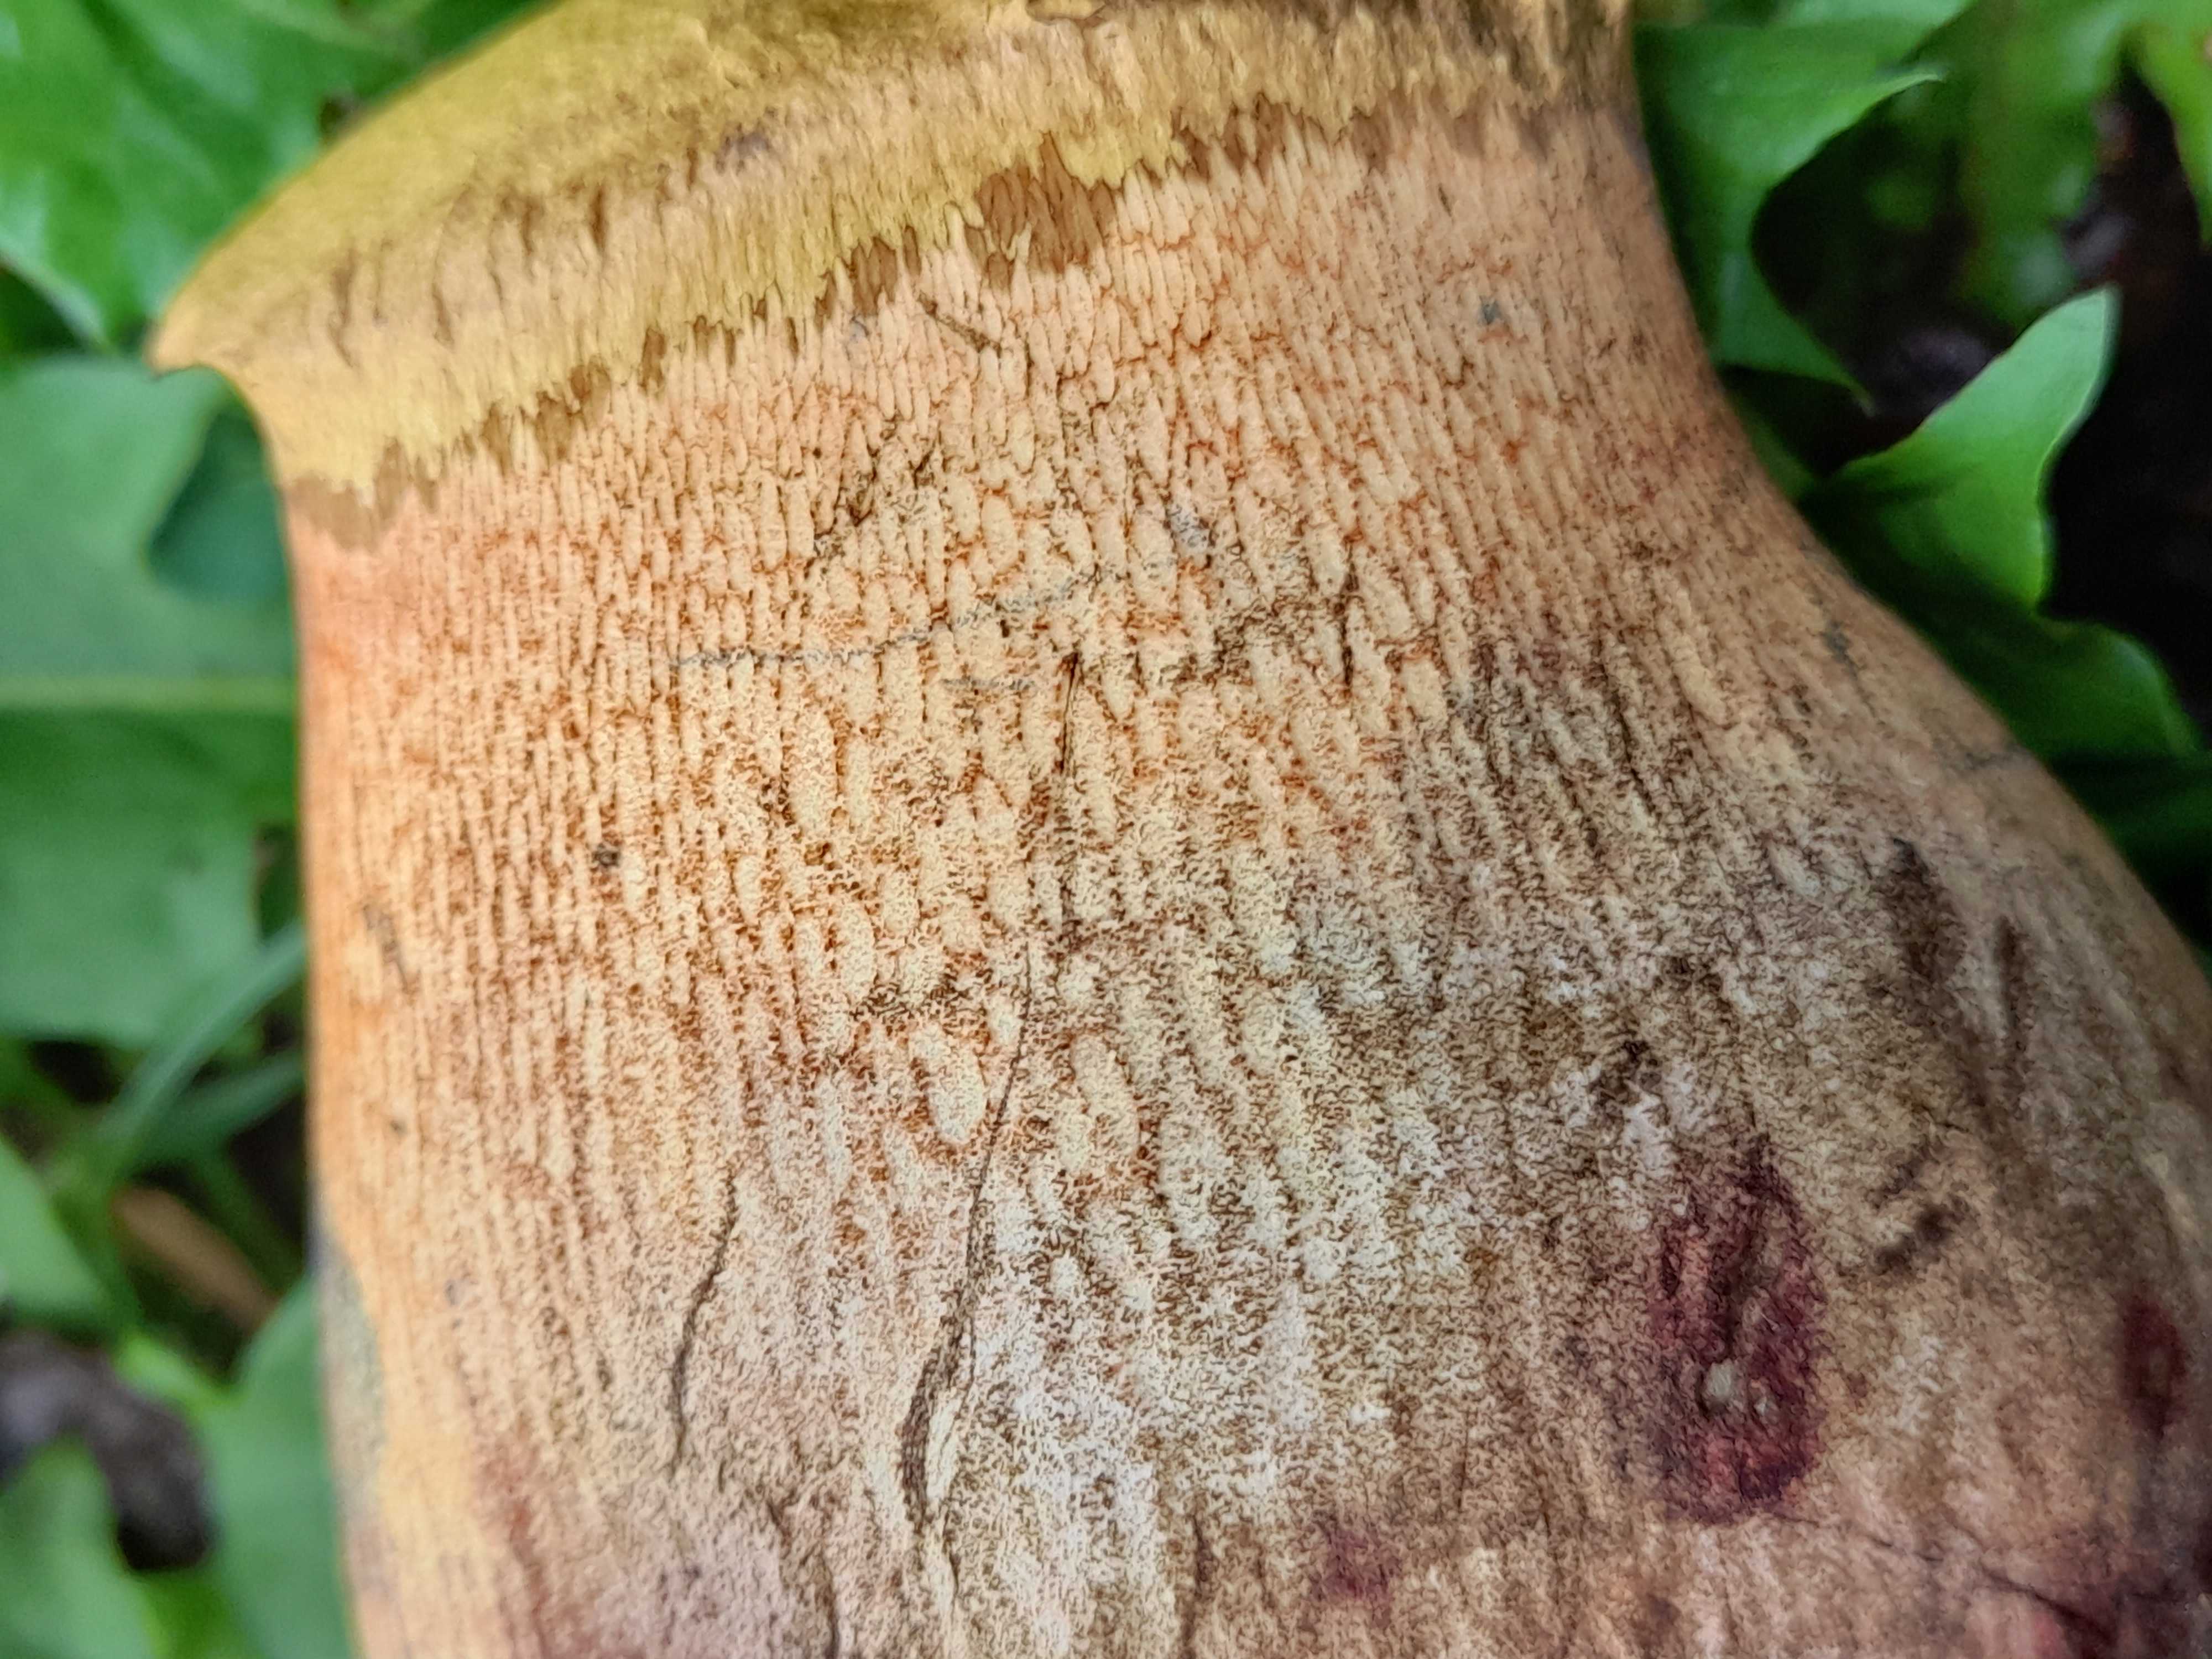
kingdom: Fungi
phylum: Basidiomycota
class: Agaricomycetes
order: Boletales
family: Boletaceae
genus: Suillellus
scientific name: Suillellus luridus
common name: netstokket indigorørhat
